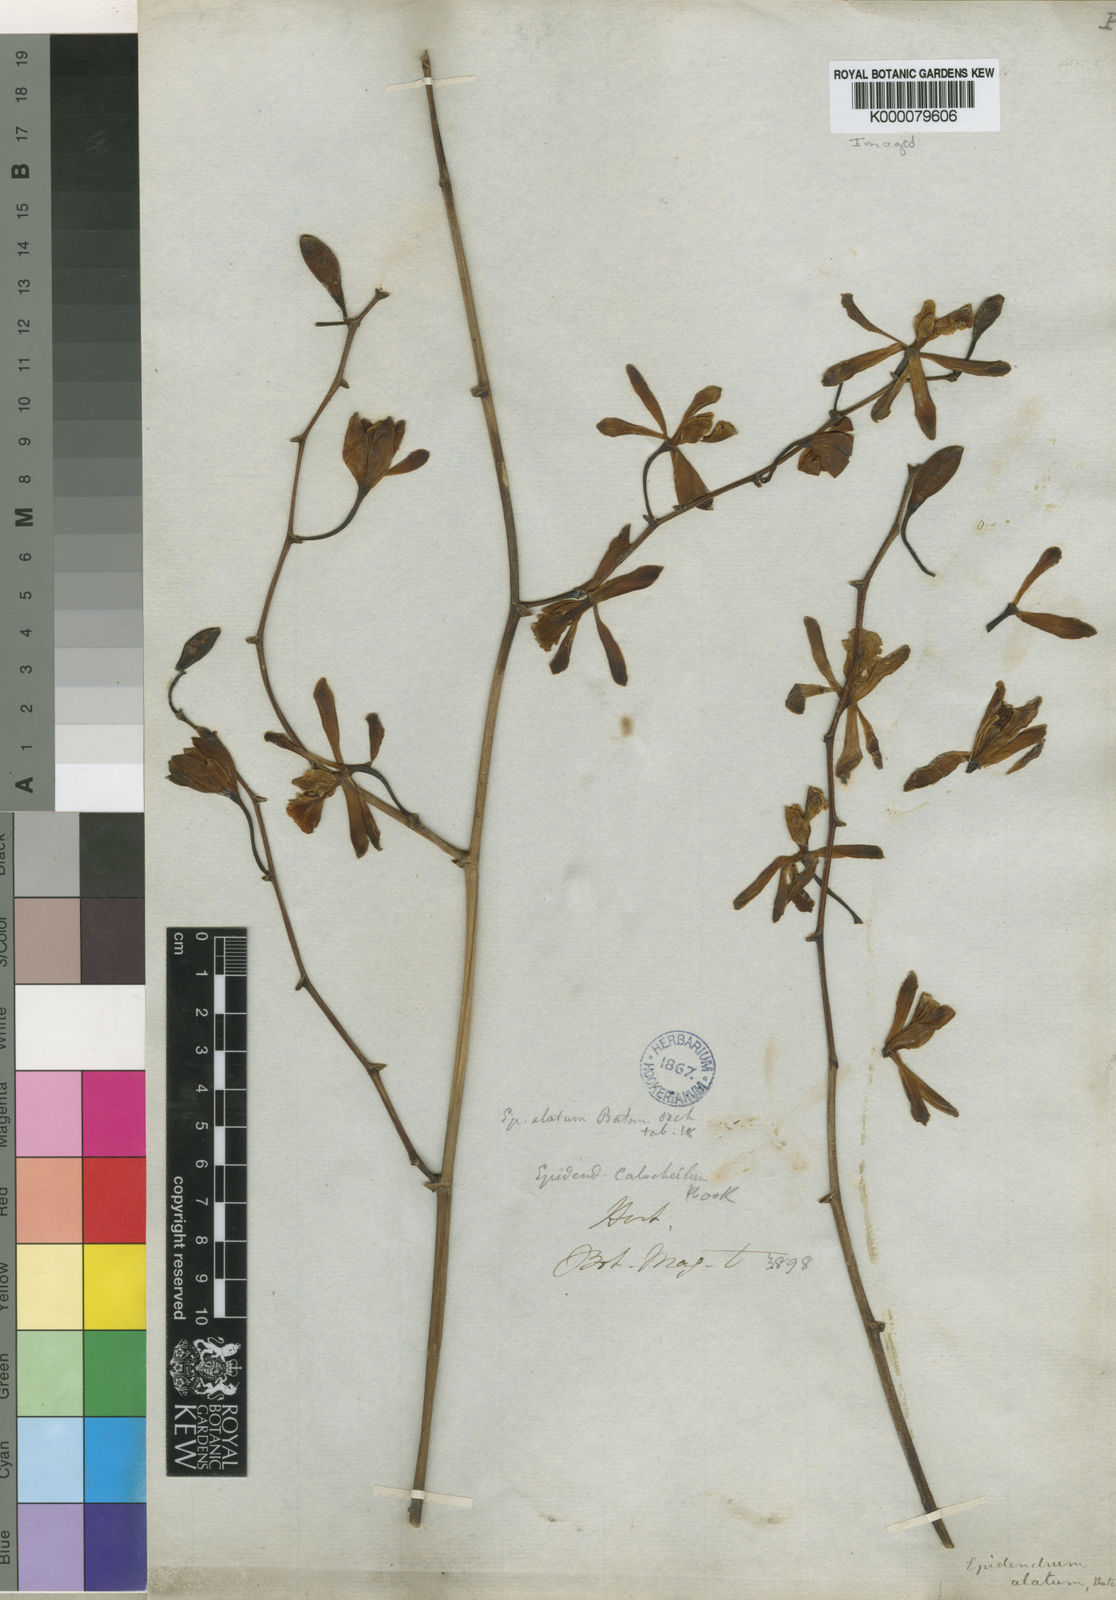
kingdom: Plantae
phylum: Tracheophyta
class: Liliopsida
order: Asparagales
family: Orchidaceae
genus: Encyclia
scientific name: Encyclia alata
